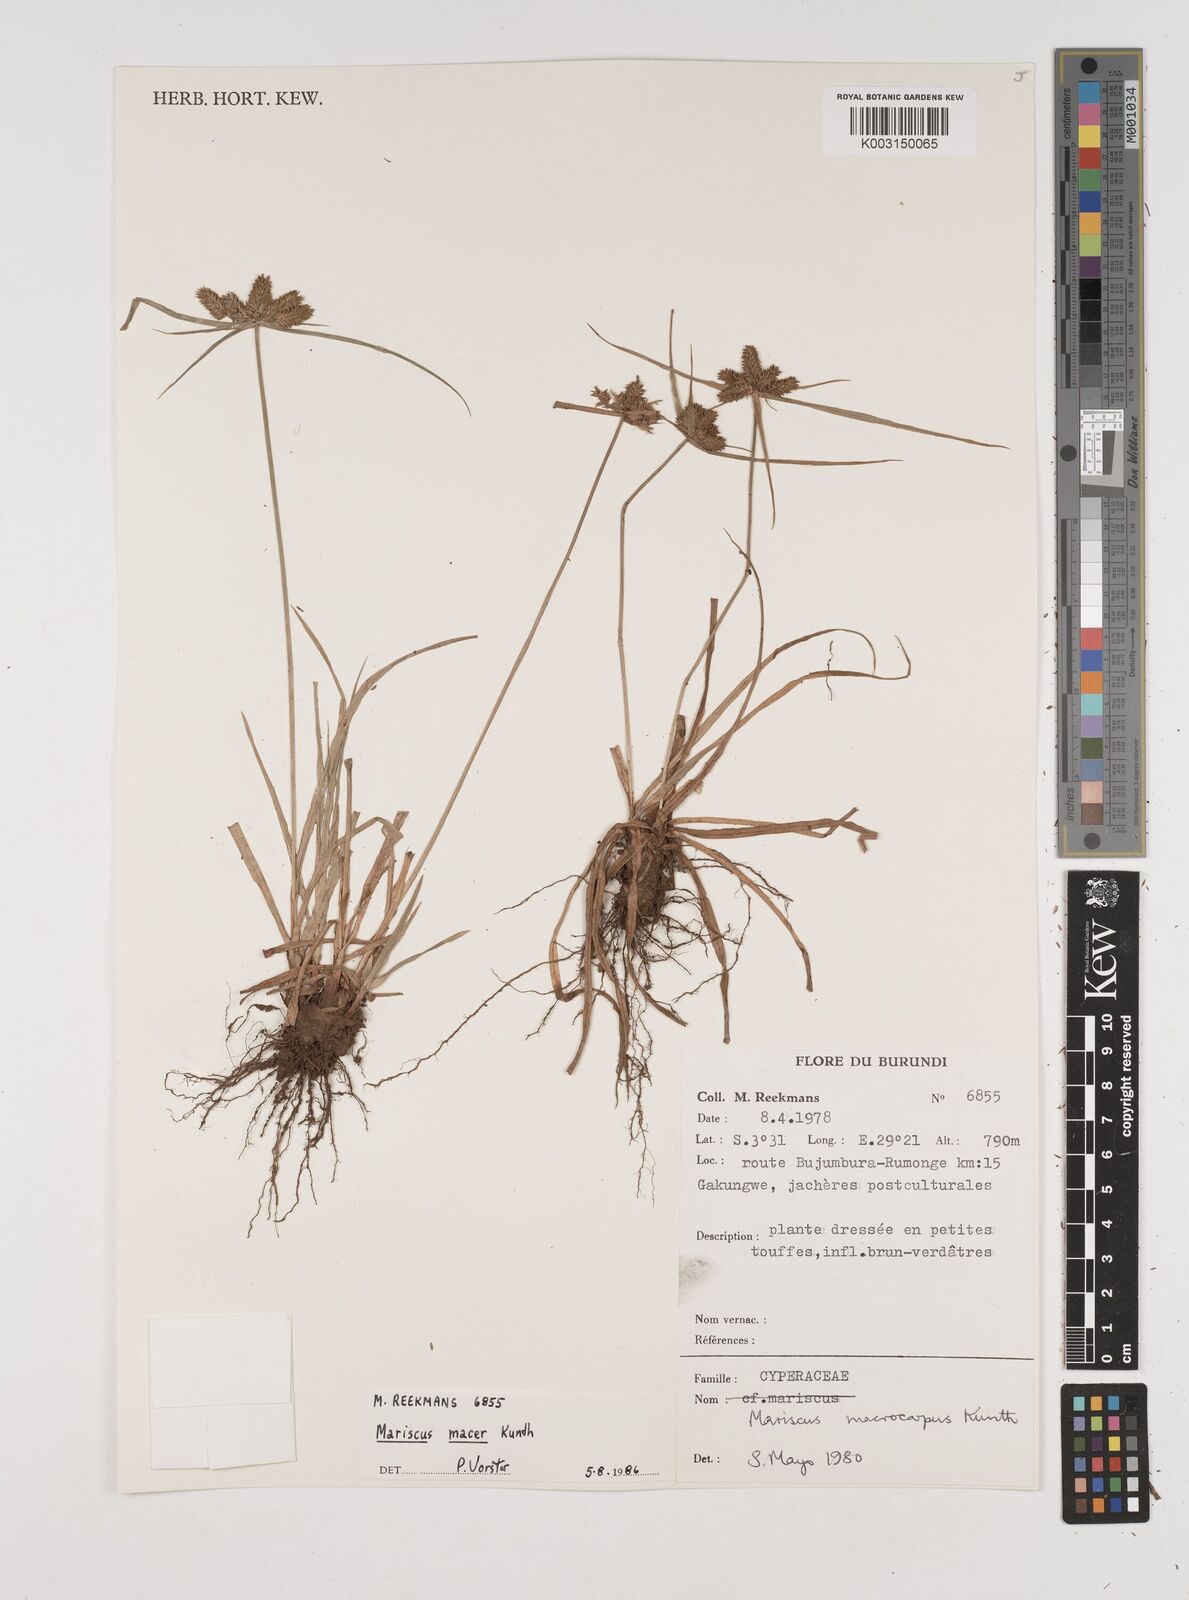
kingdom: Plantae
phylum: Tracheophyta
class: Liliopsida
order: Poales
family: Cyperaceae
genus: Cyperus
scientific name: Cyperus macrocarpus
